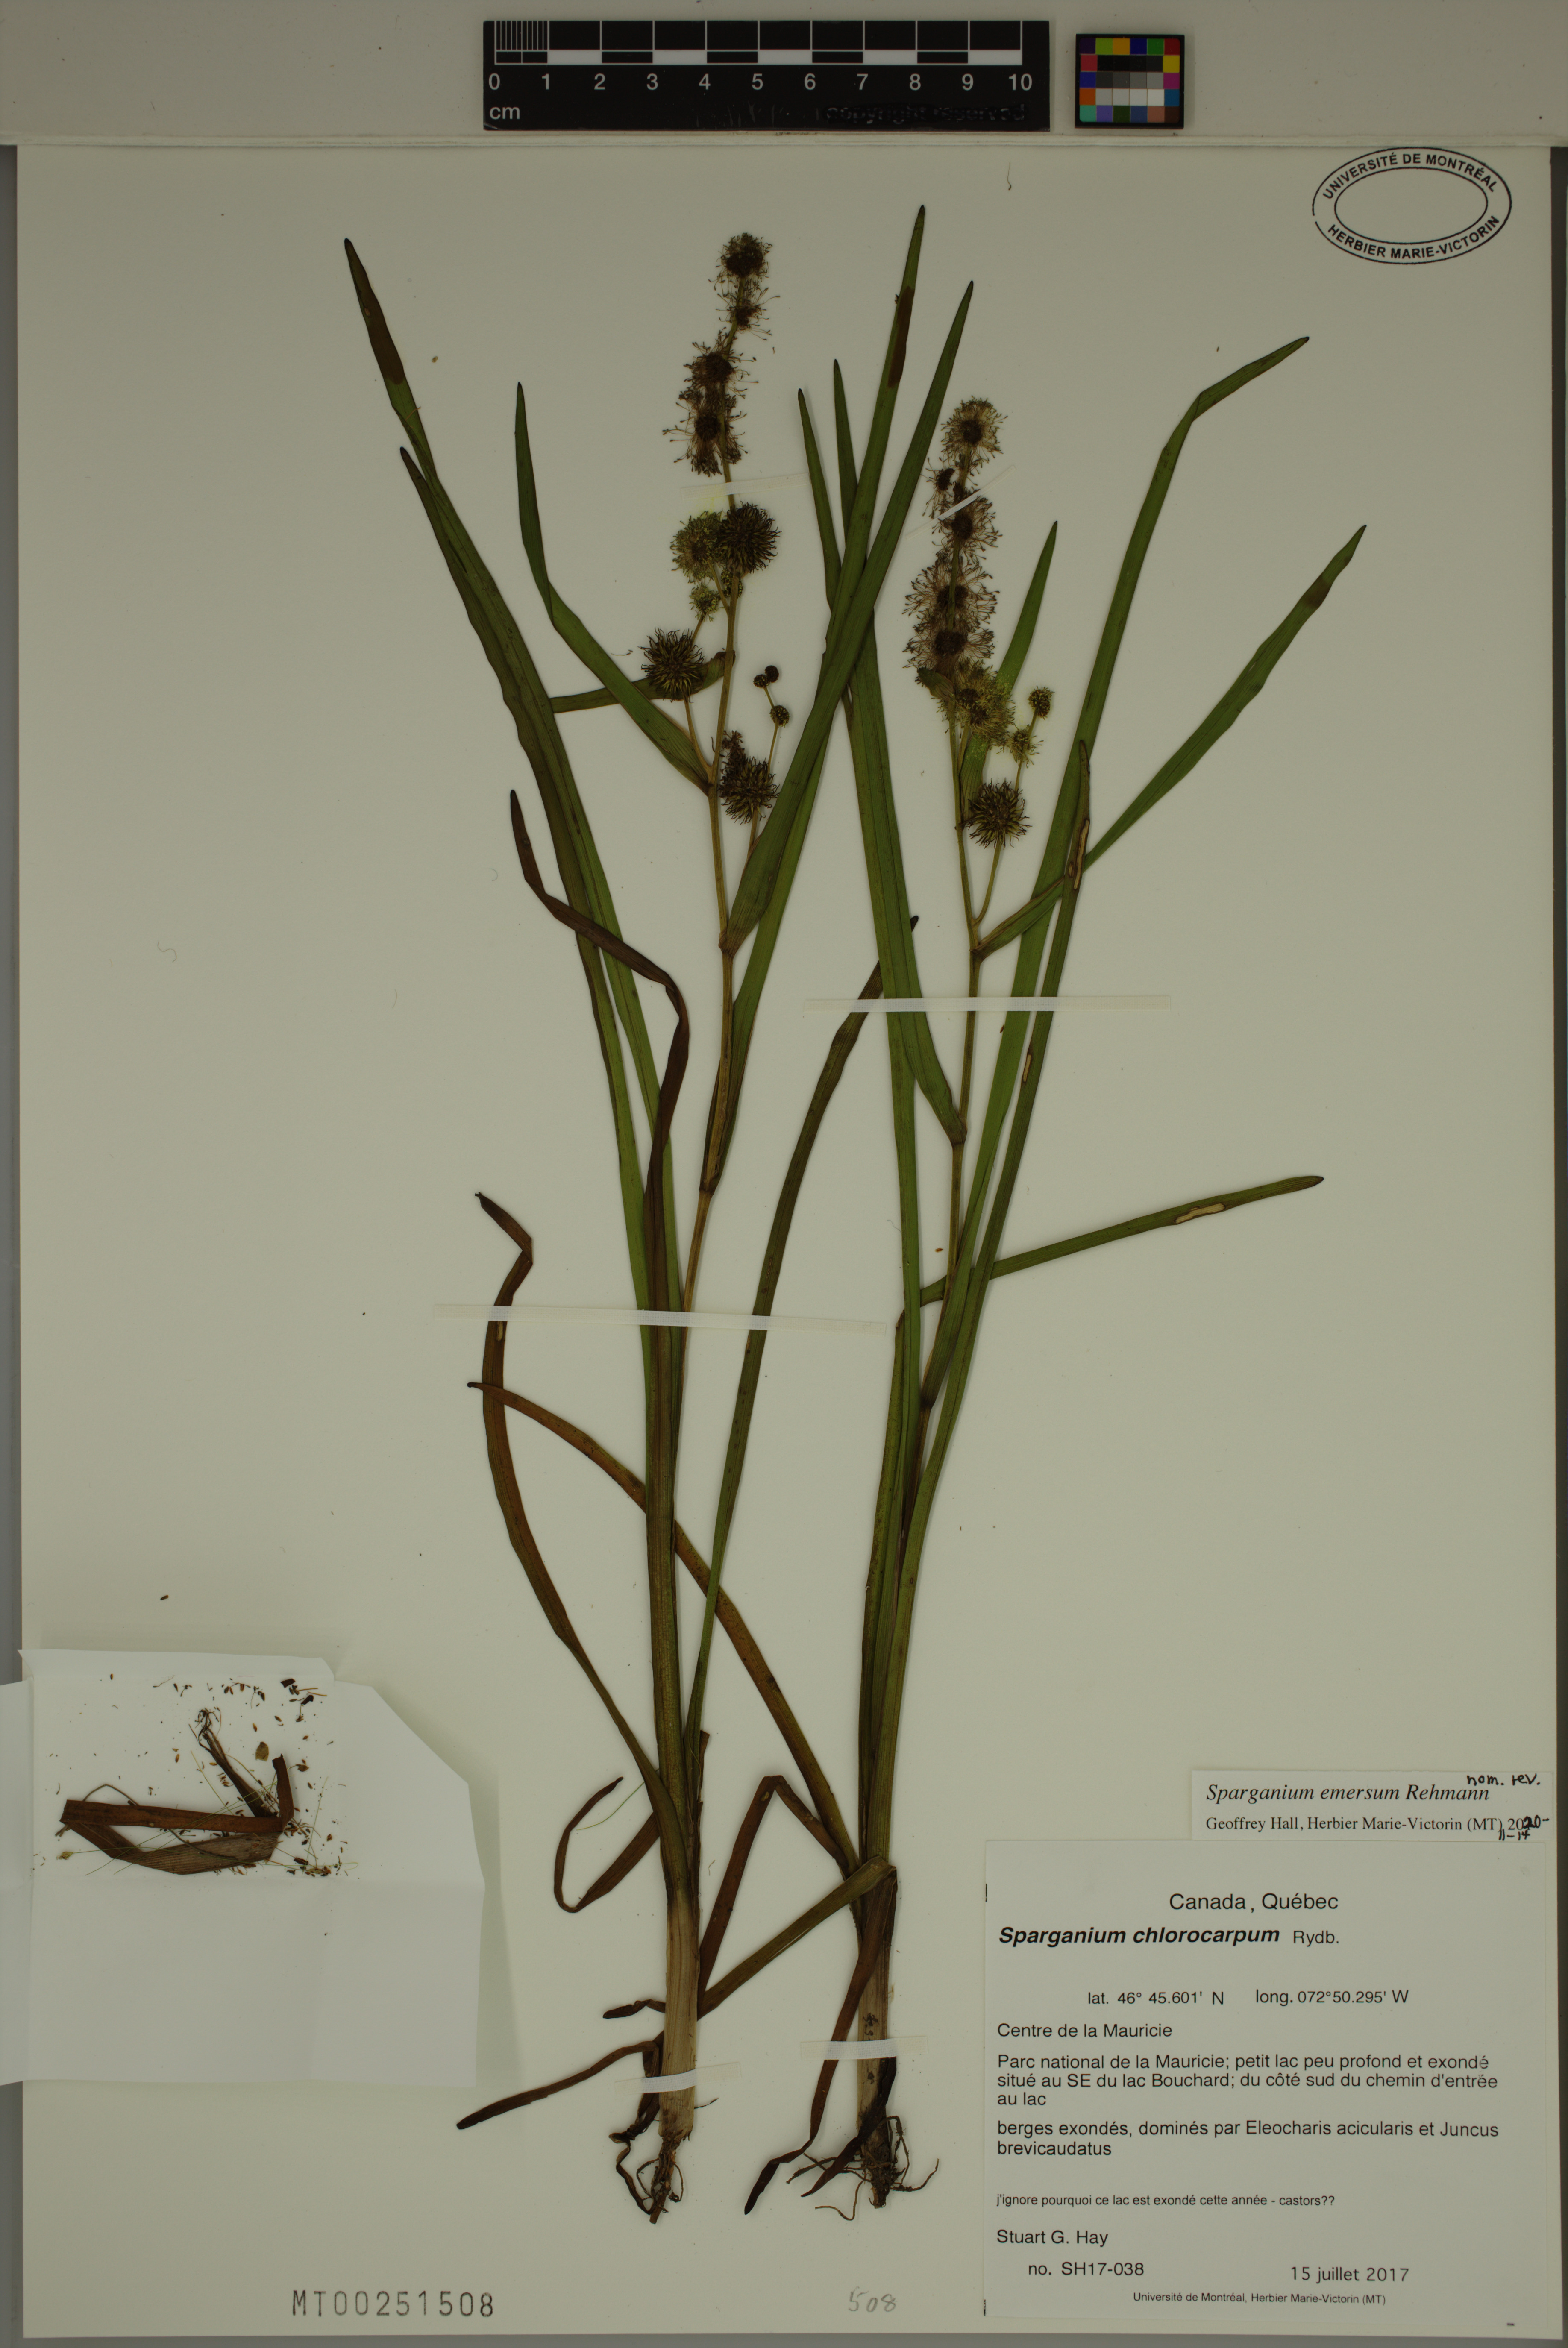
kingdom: Plantae
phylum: Tracheophyta
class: Liliopsida
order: Poales
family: Typhaceae
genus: Sparganium
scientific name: Sparganium emersum
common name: Unbranched bur-reed
